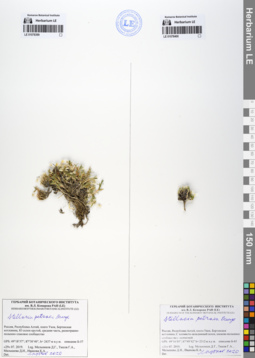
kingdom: Plantae
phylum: Tracheophyta
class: Magnoliopsida
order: Caryophyllales
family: Caryophyllaceae
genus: Adenonema
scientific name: Adenonema petraeum
